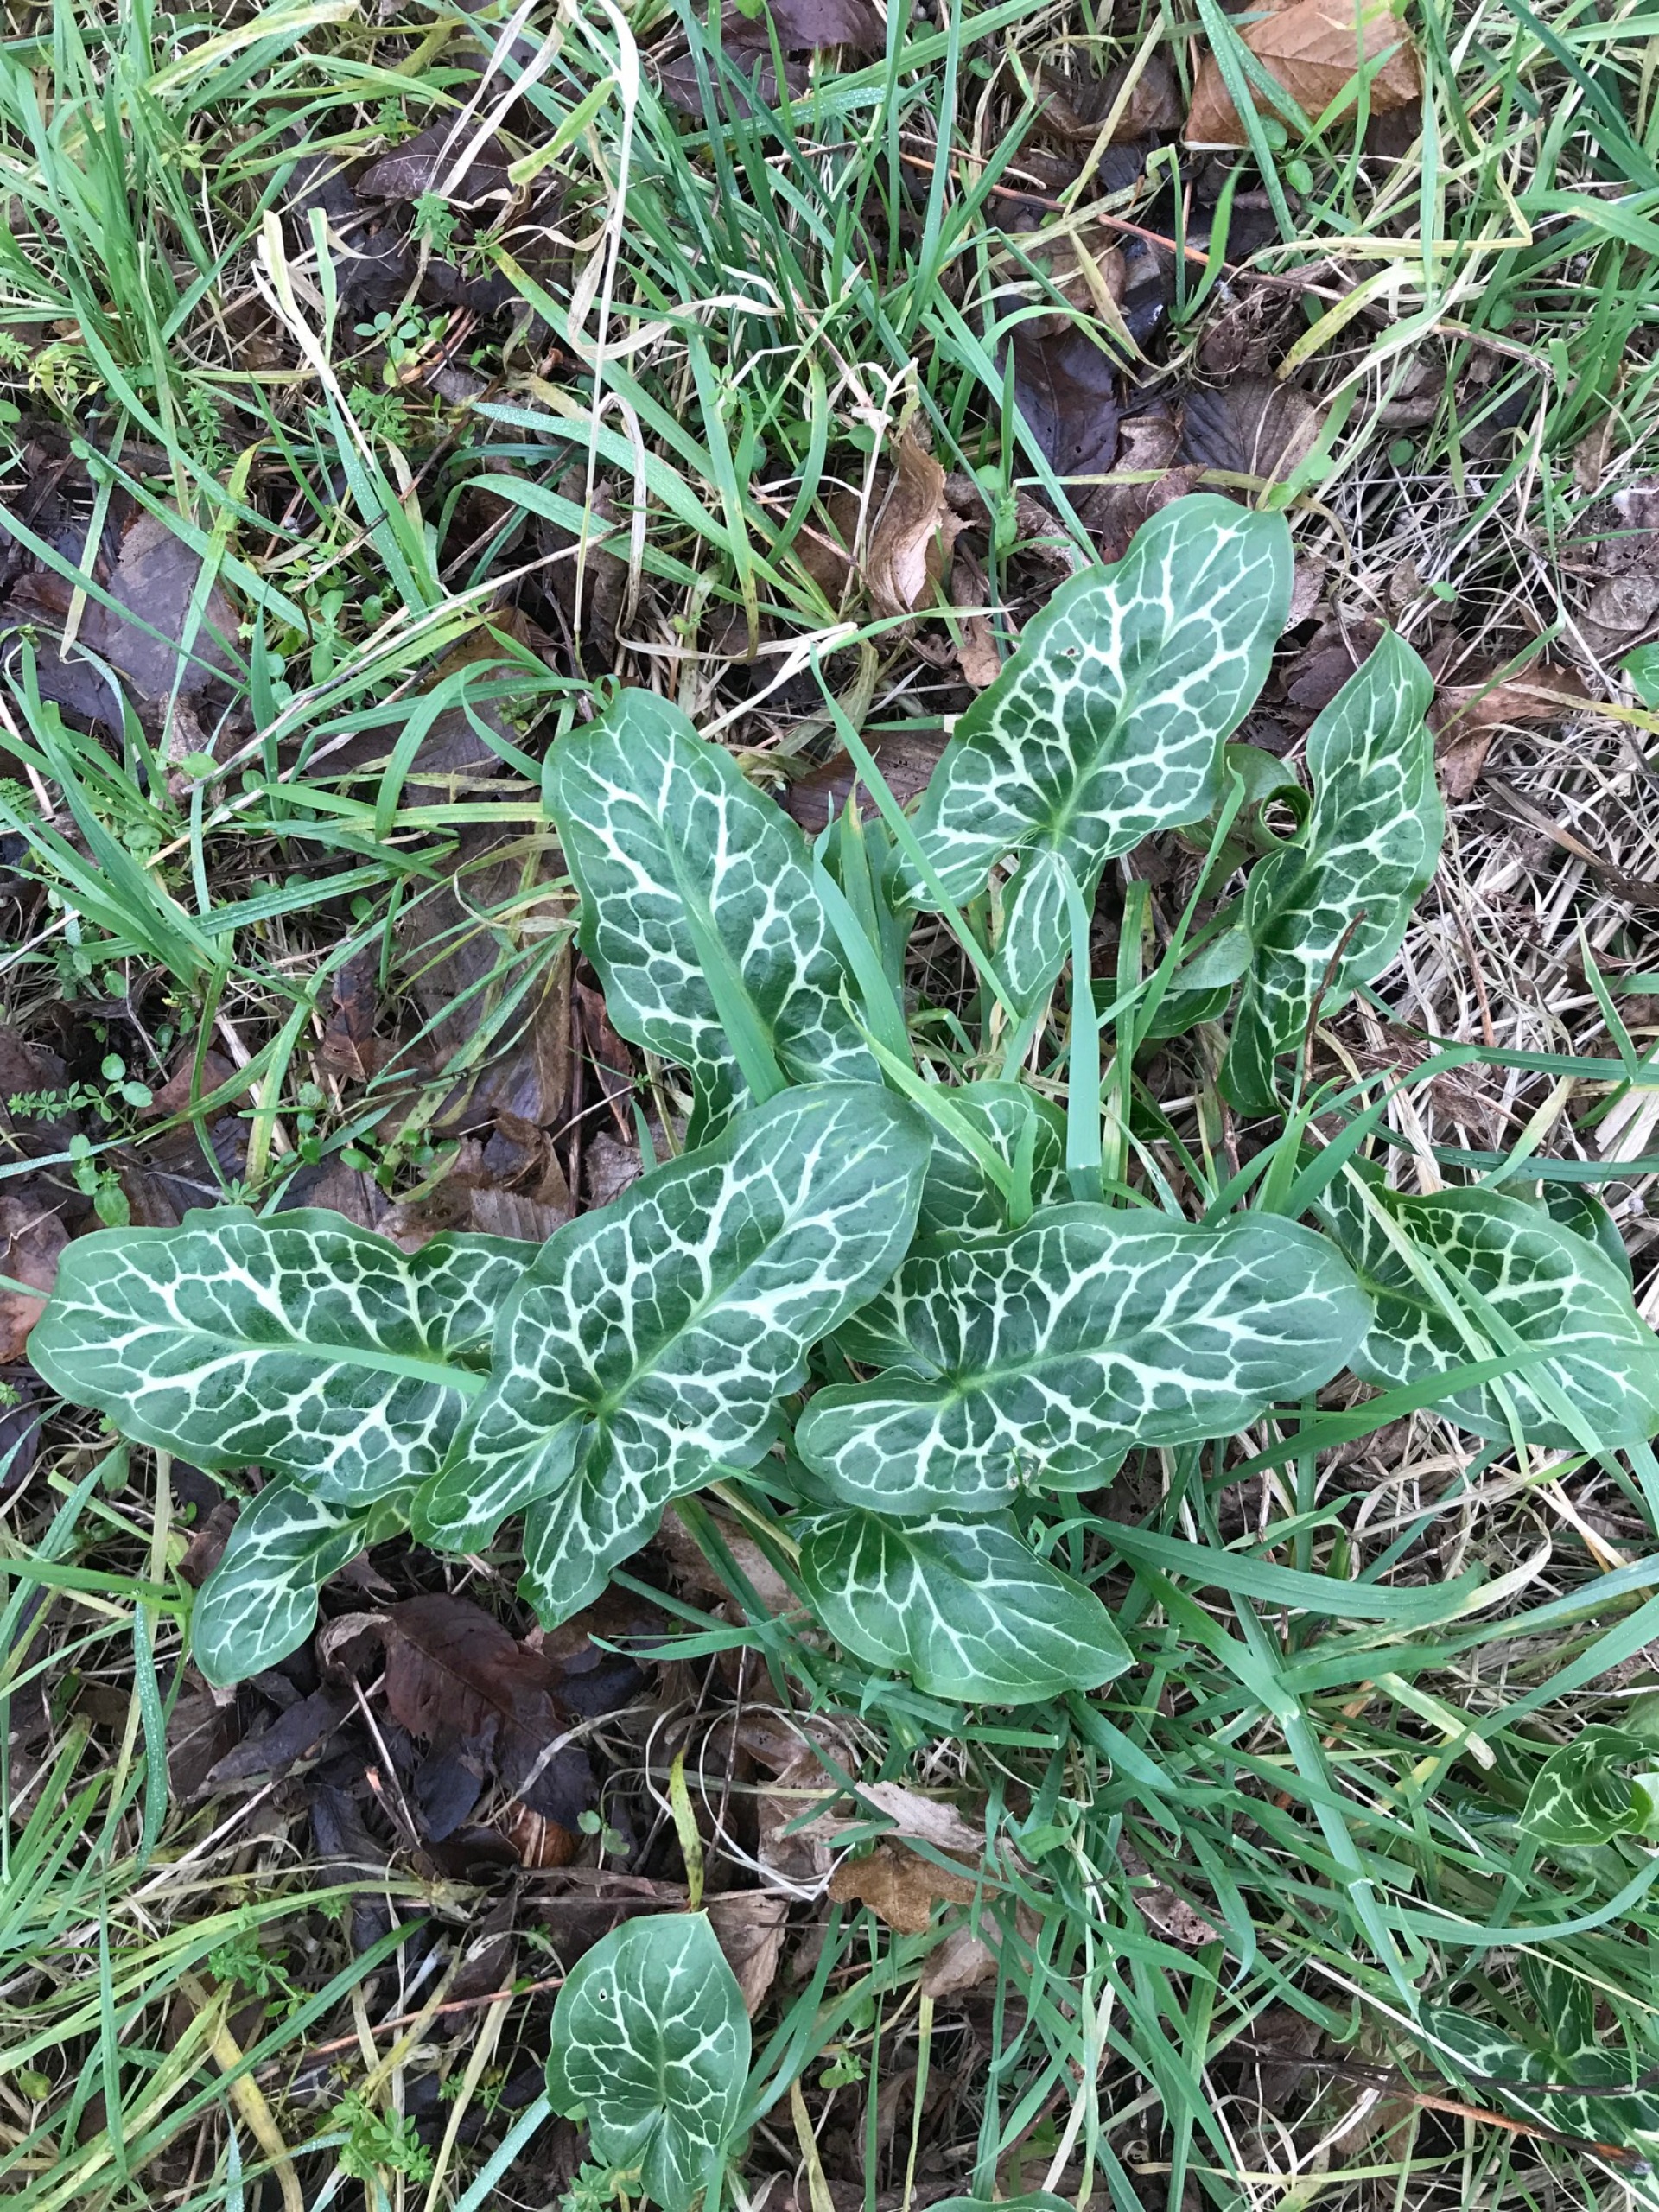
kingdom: Plantae
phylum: Tracheophyta
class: Liliopsida
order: Alismatales
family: Araceae
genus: Arum
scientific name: Arum italicum
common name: Italiensk arum
